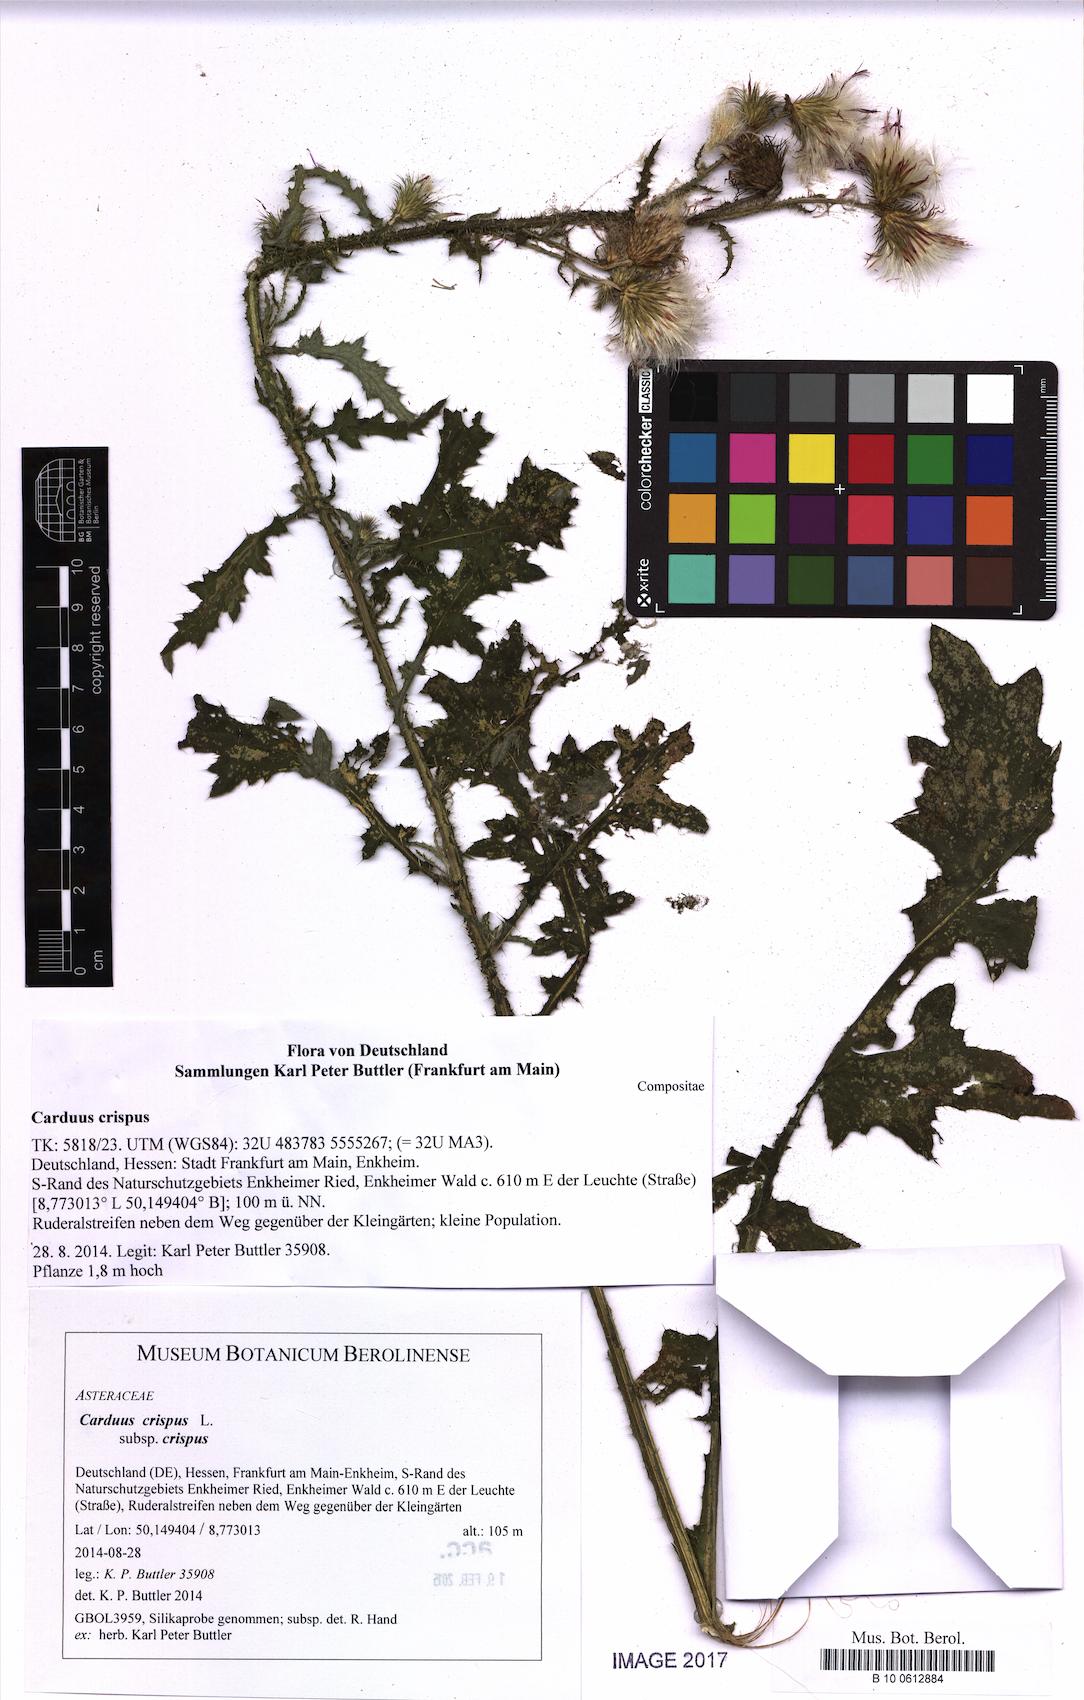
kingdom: Plantae
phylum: Tracheophyta
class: Magnoliopsida
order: Asterales
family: Asteraceae
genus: Carduus
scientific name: Carduus crispus
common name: Welted thistle
